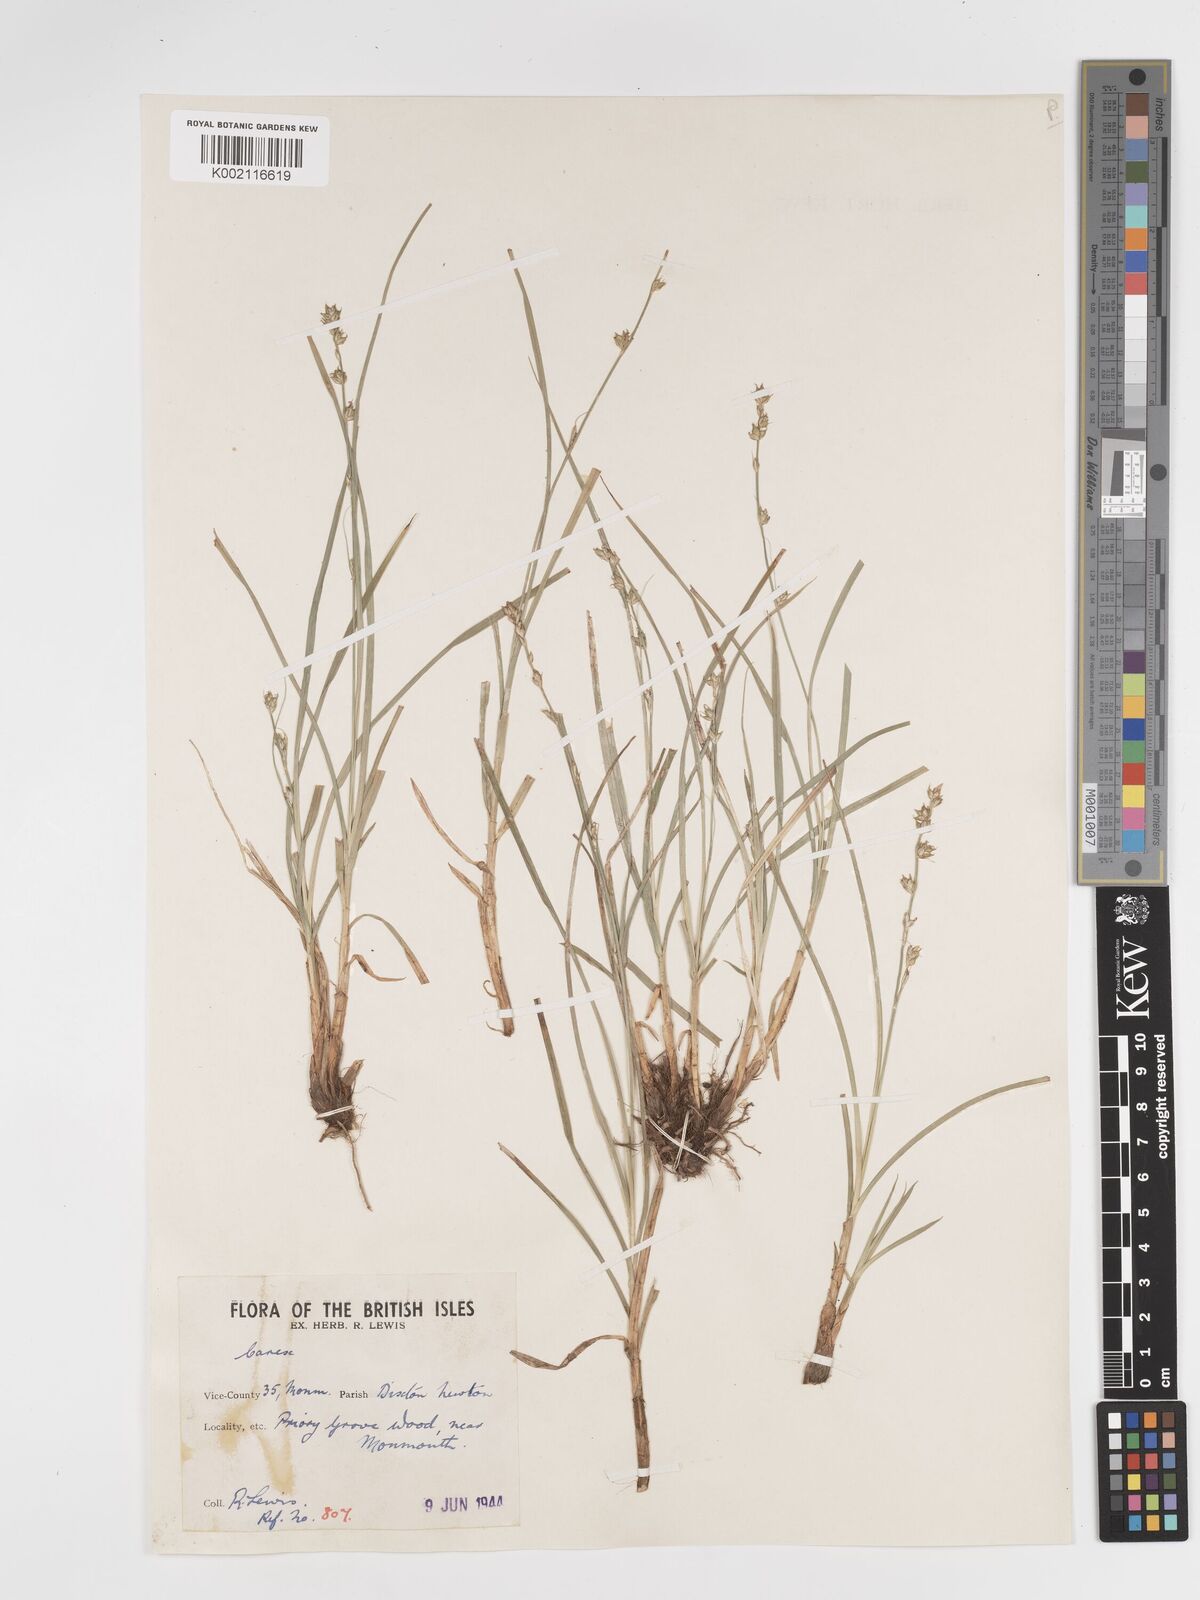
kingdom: Plantae
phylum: Tracheophyta
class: Liliopsida
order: Poales
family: Cyperaceae
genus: Carex
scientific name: Carex divulsa
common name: Grassland sedge
